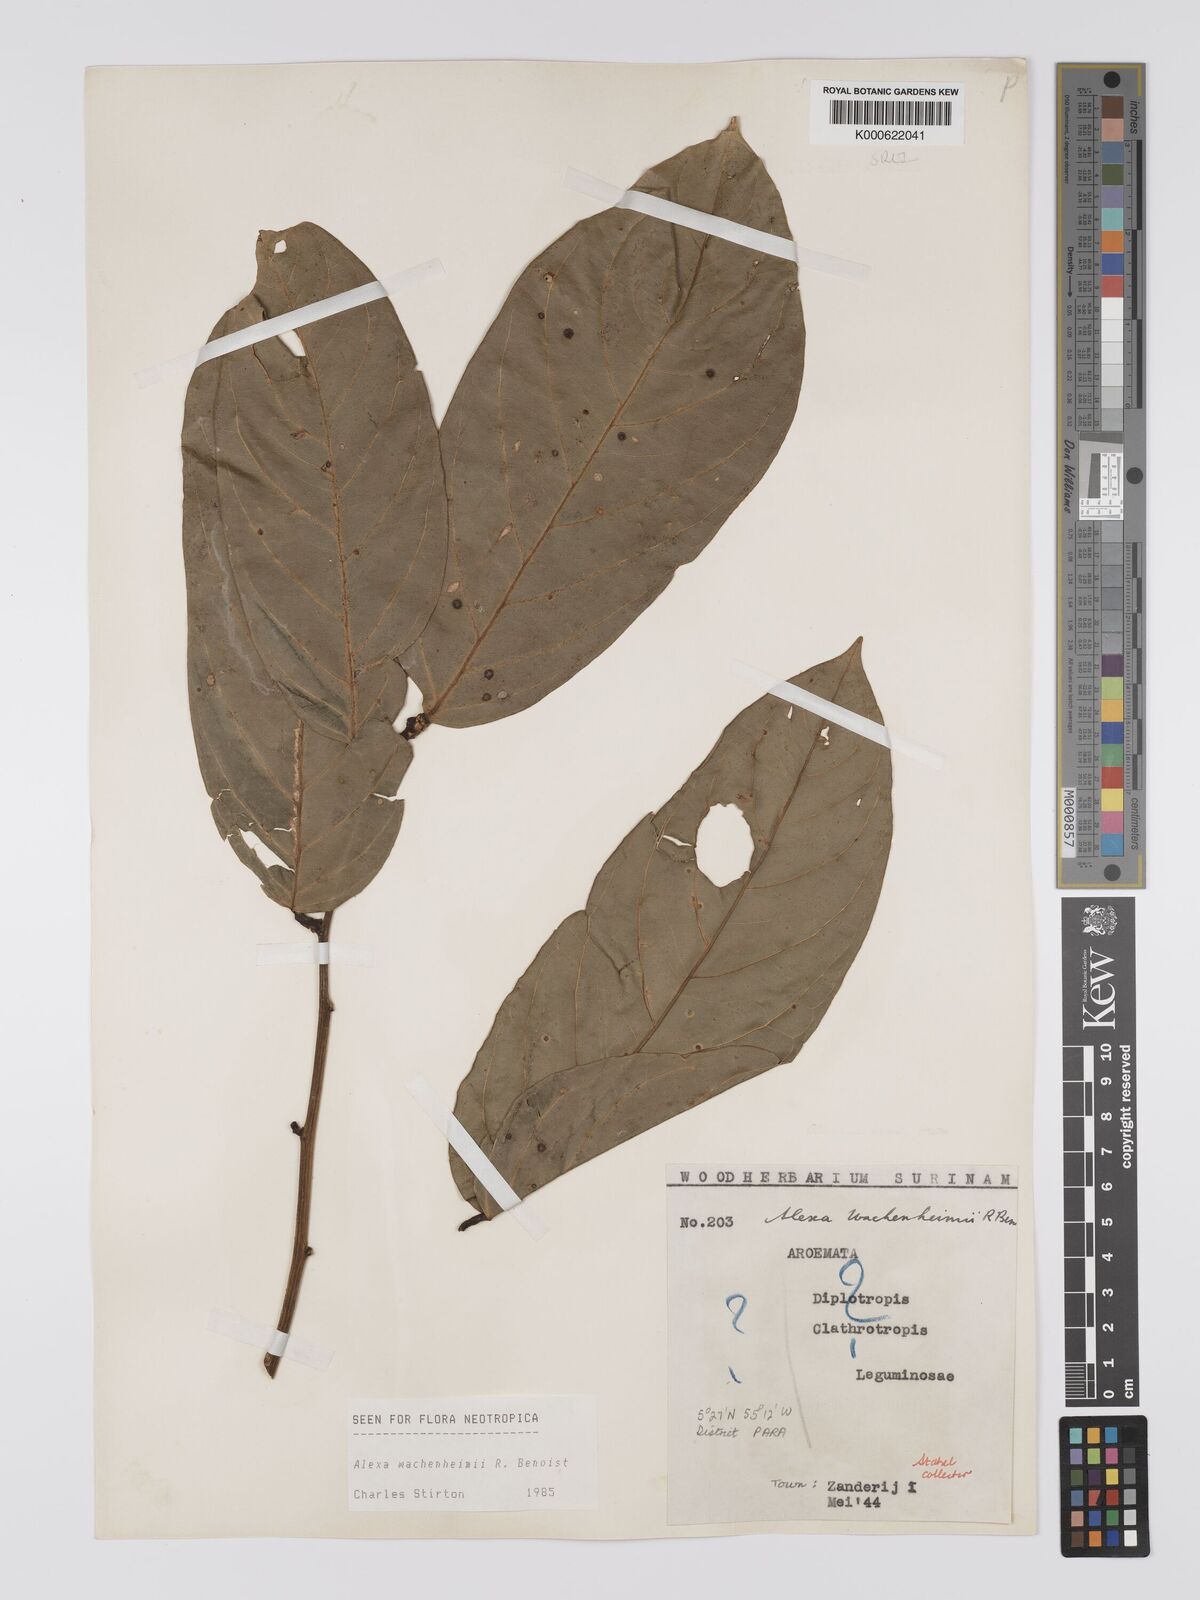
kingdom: Plantae
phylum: Tracheophyta
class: Magnoliopsida
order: Fabales
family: Fabaceae
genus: Alexa
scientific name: Alexa wachenheimii
